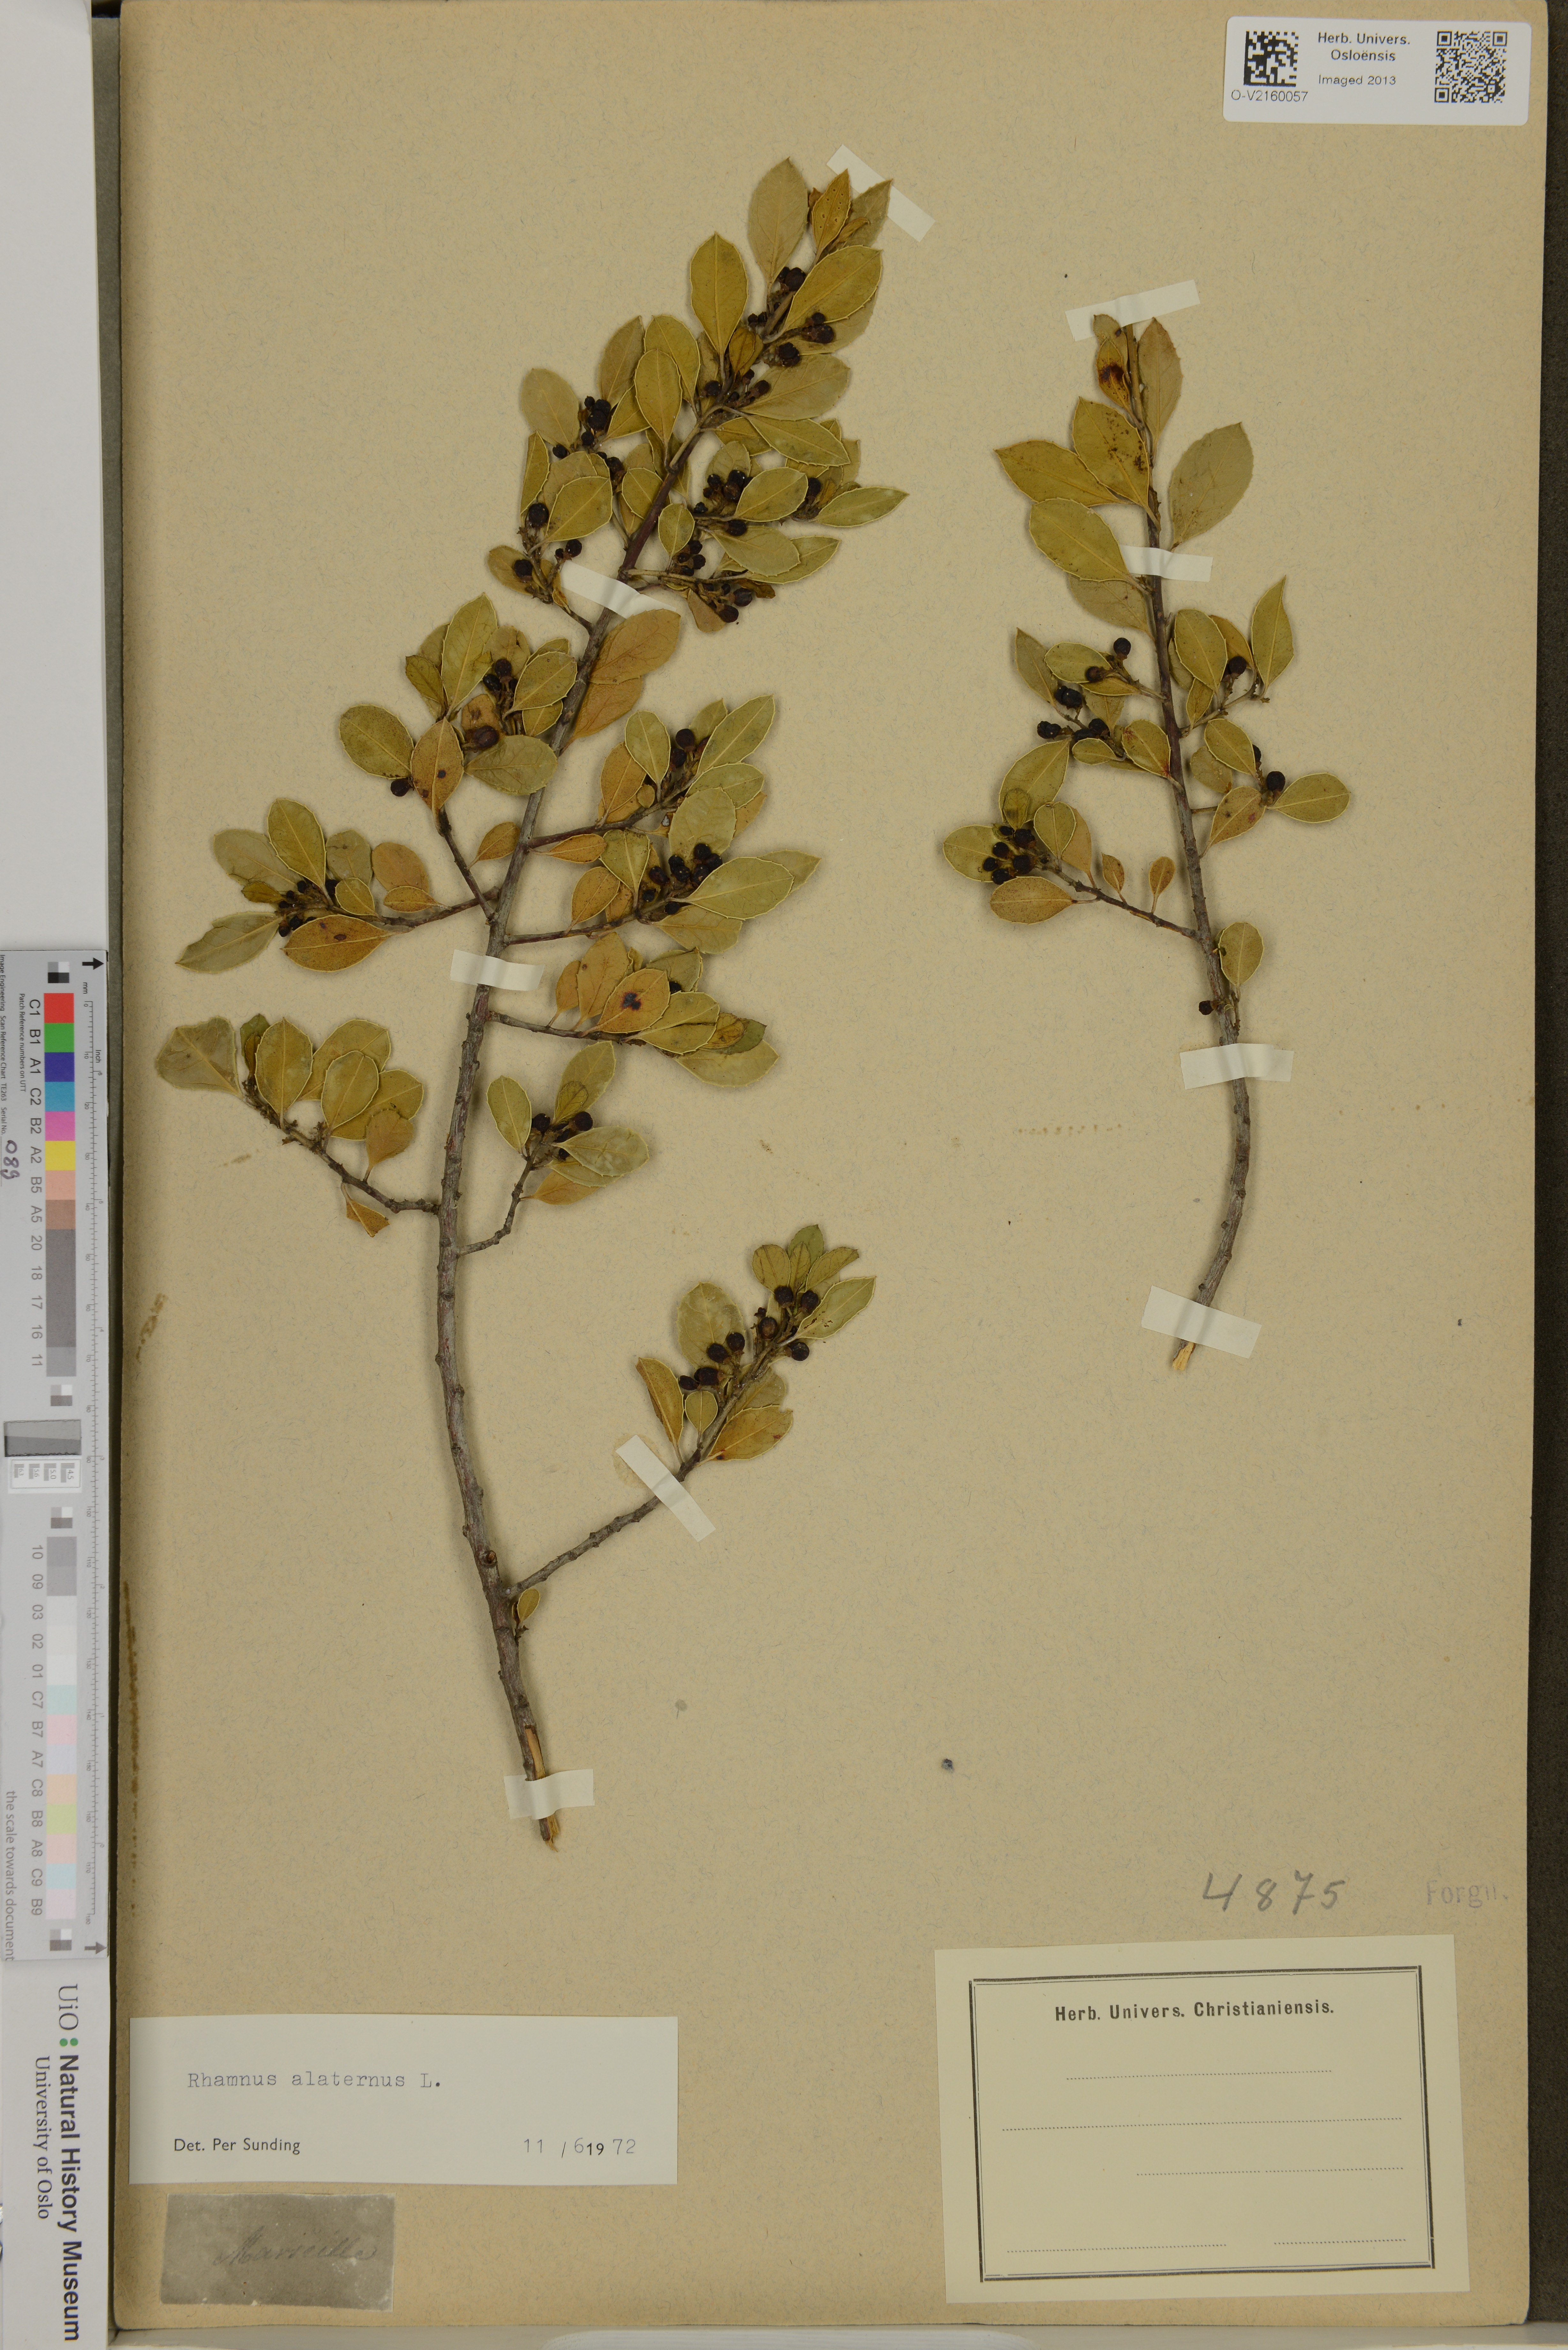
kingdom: Plantae
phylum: Tracheophyta
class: Magnoliopsida
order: Rosales
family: Rhamnaceae
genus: Rhamnus
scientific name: Rhamnus alaternus
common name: Mediterranean buckthorn
